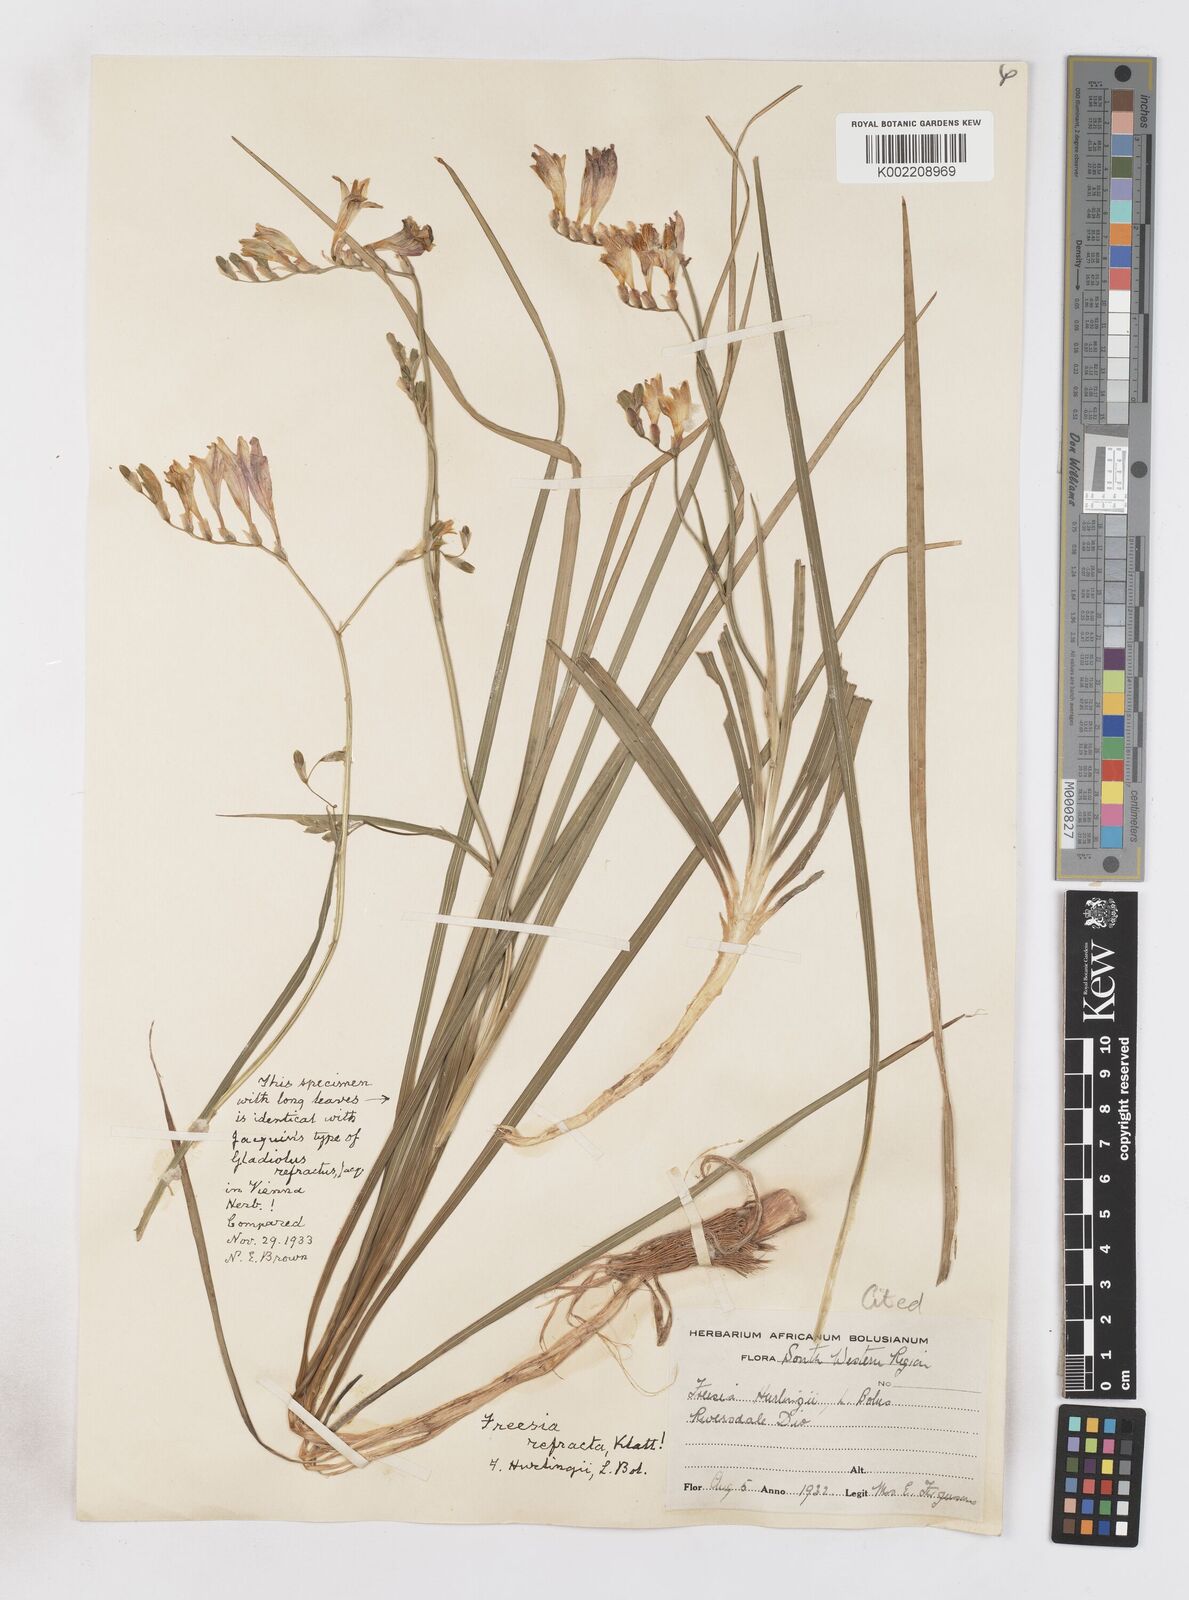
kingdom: Plantae
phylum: Tracheophyta
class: Liliopsida
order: Asparagales
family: Iridaceae
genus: Freesia
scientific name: Freesia refracta
